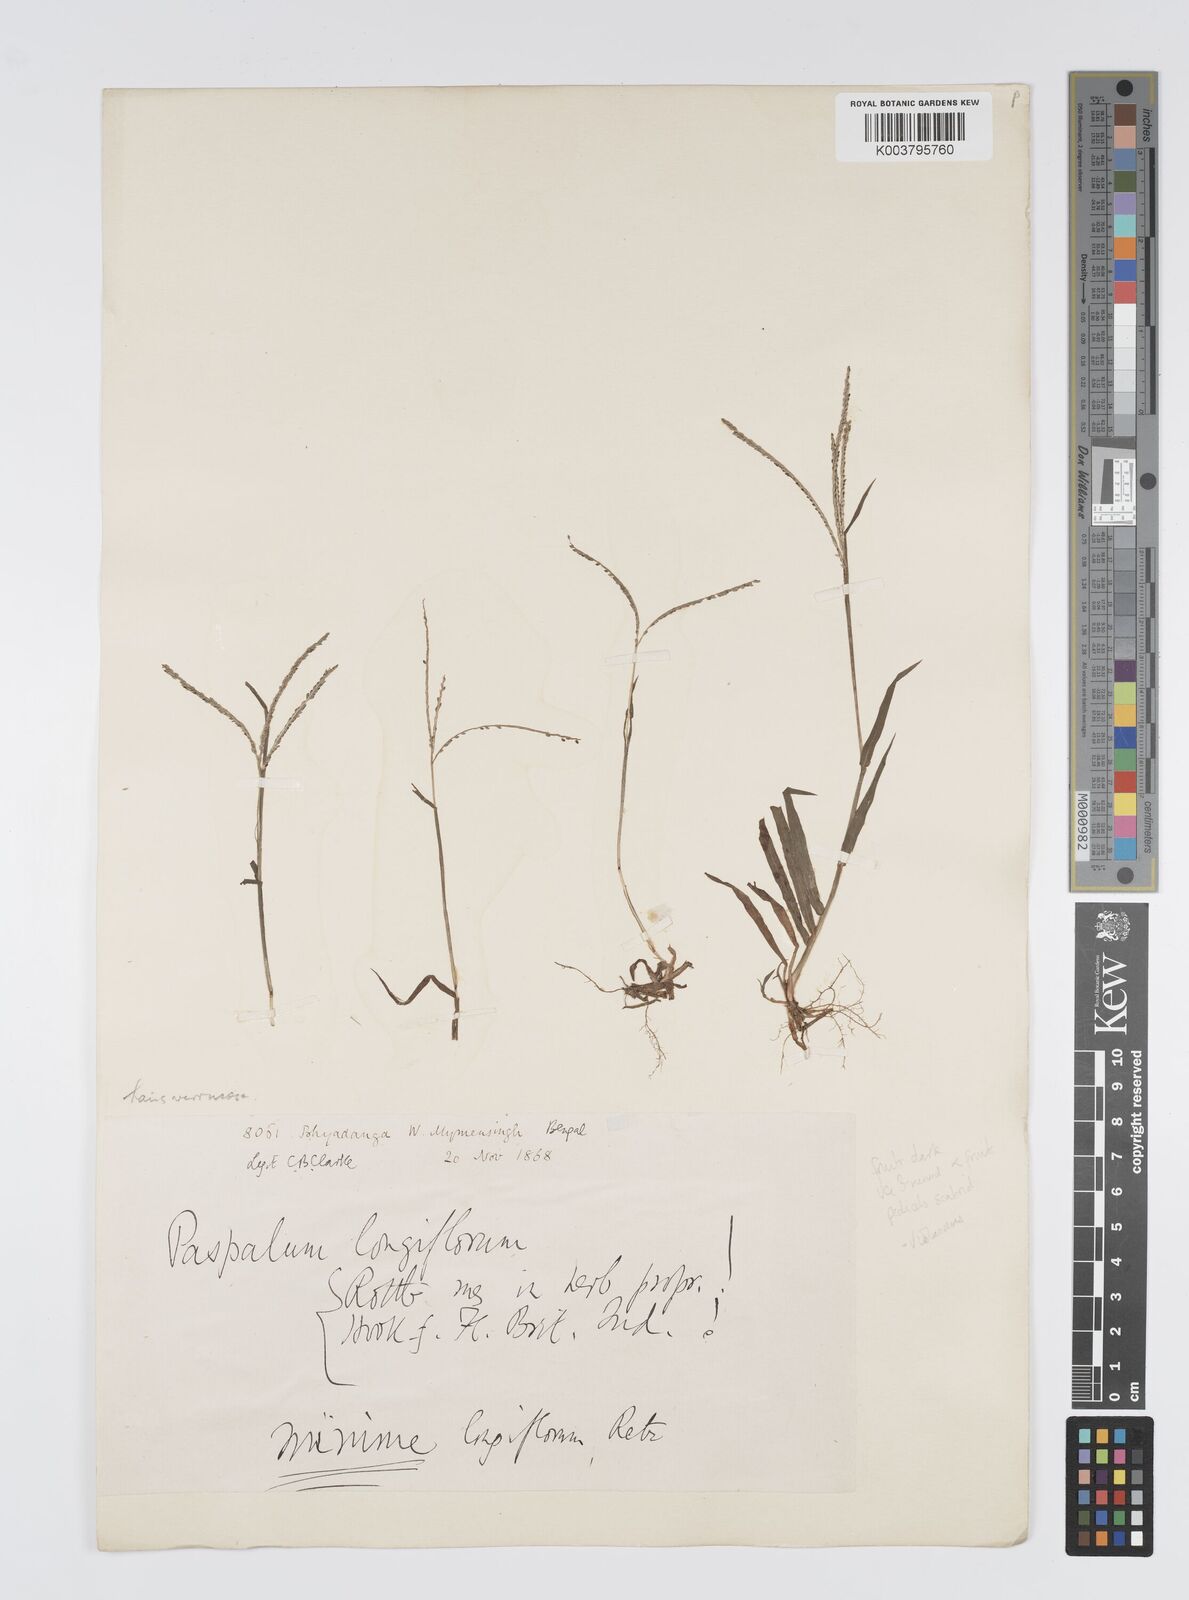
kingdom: Plantae
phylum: Tracheophyta
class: Liliopsida
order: Poales
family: Poaceae
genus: Digitaria
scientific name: Digitaria violascens
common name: Violet crabgrass
